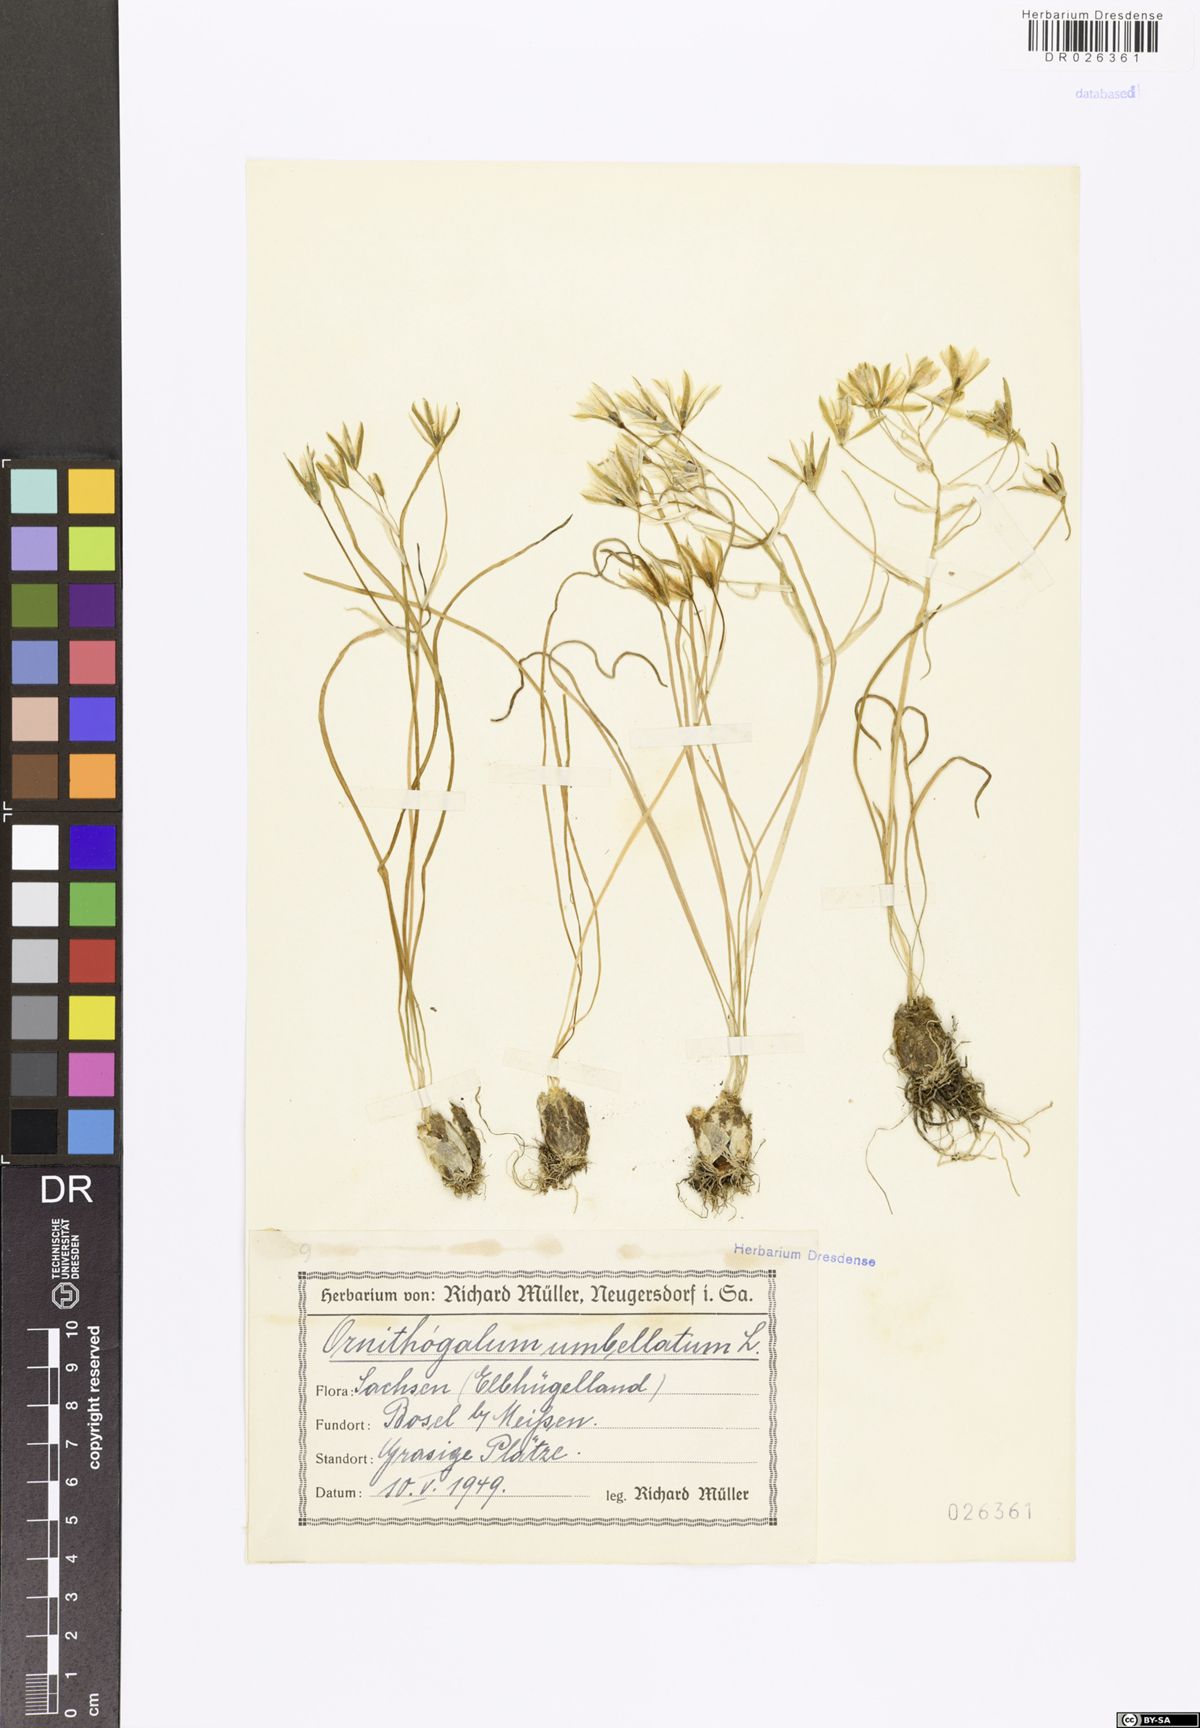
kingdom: Plantae
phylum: Tracheophyta
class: Liliopsida
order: Asparagales
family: Asparagaceae
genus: Ornithogalum
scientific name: Ornithogalum umbellatum
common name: Garden star-of-bethlehem
